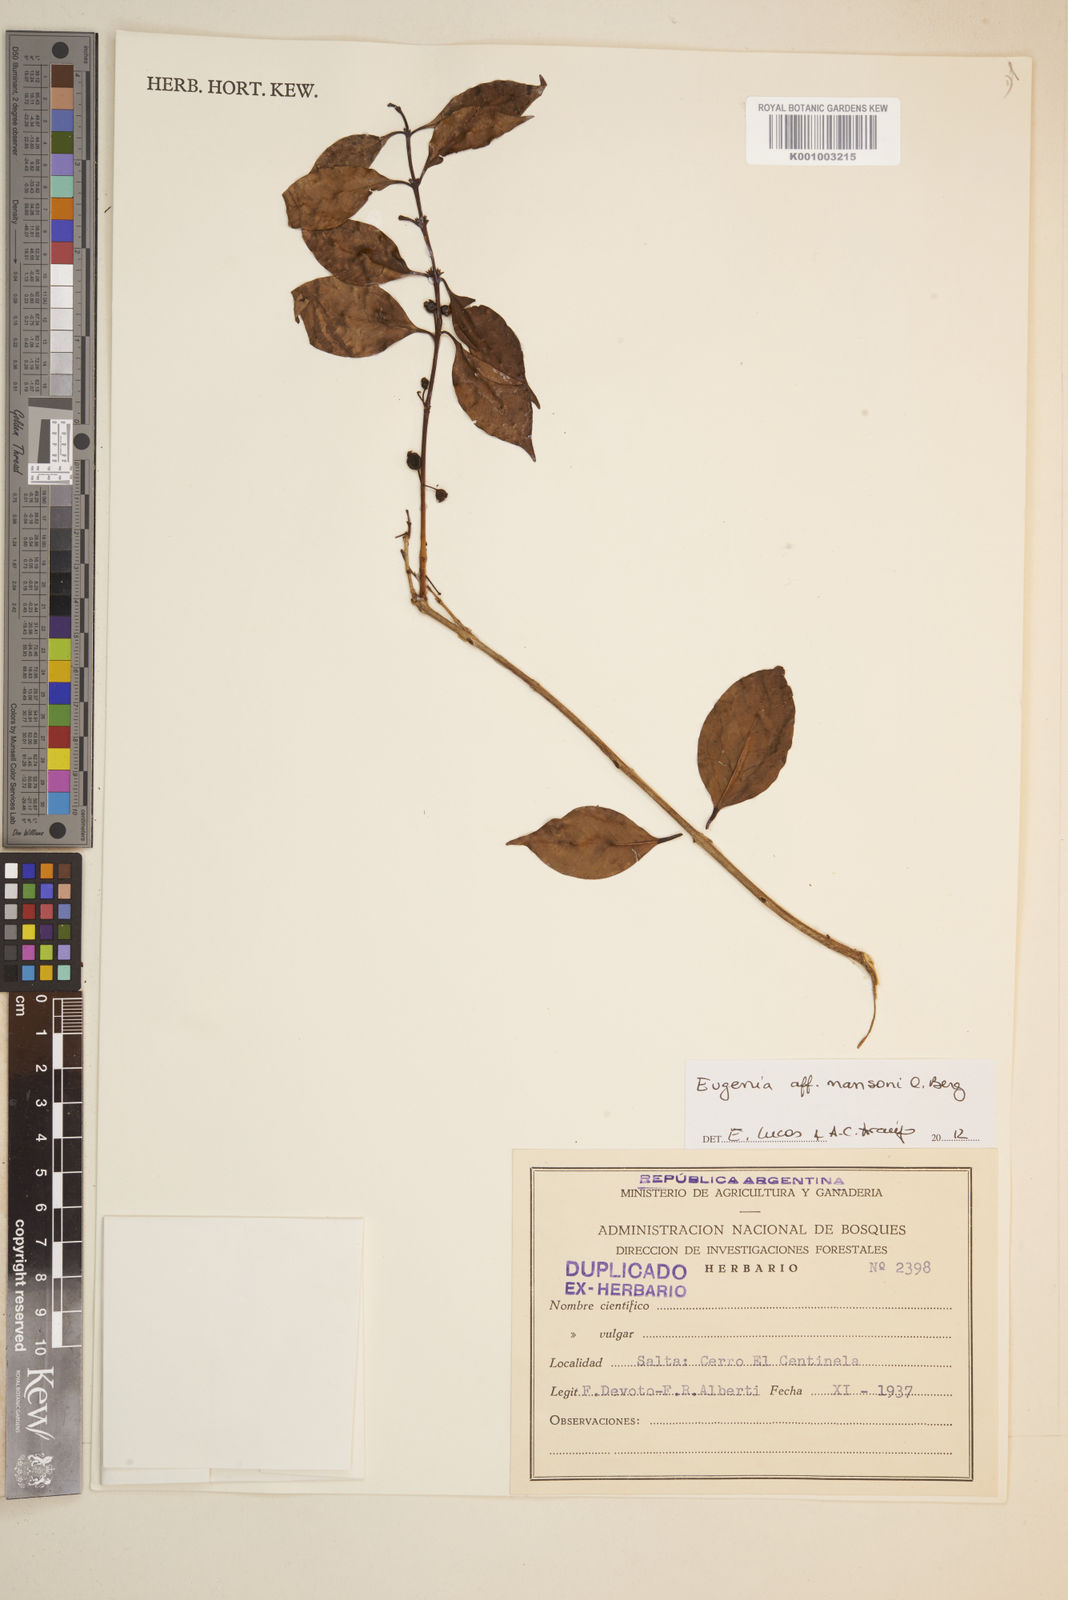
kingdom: Plantae
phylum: Tracheophyta
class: Magnoliopsida
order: Myrtales
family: Myrtaceae
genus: Eugenia
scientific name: Eugenia
